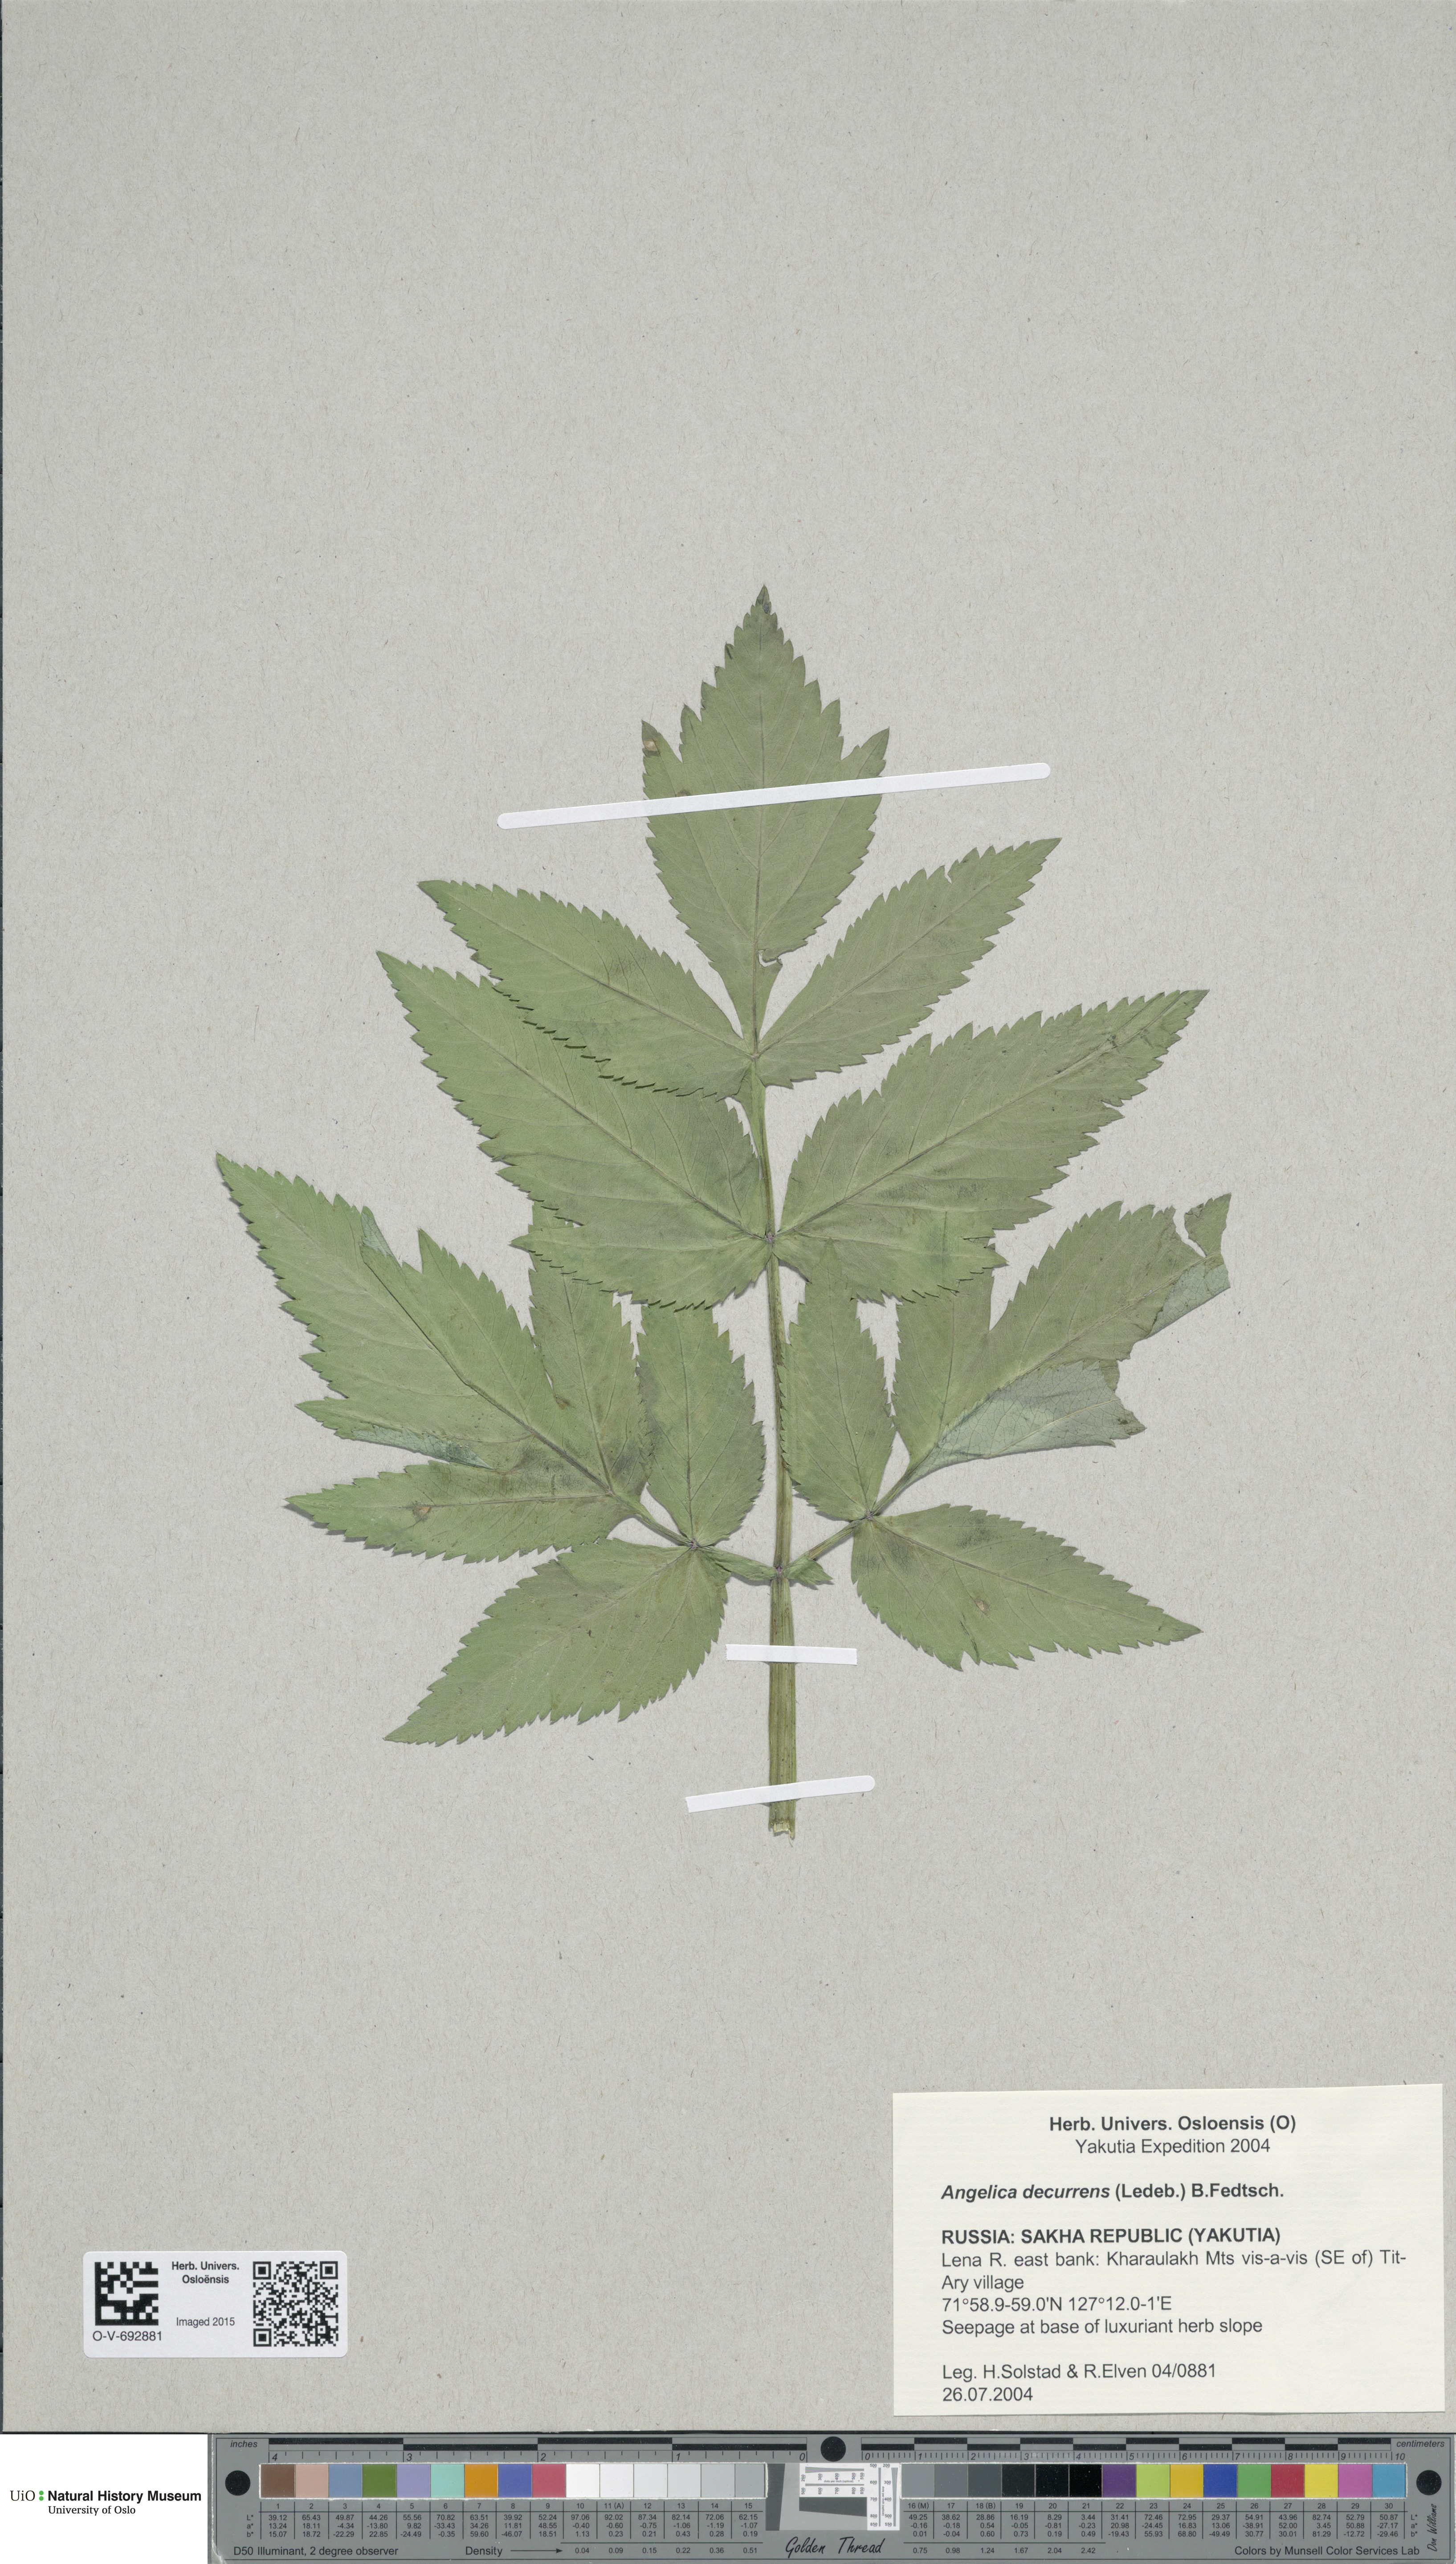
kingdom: Plantae
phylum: Tracheophyta
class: Magnoliopsida
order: Apiales
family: Apiaceae
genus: Angelica
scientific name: Angelica decurrens
